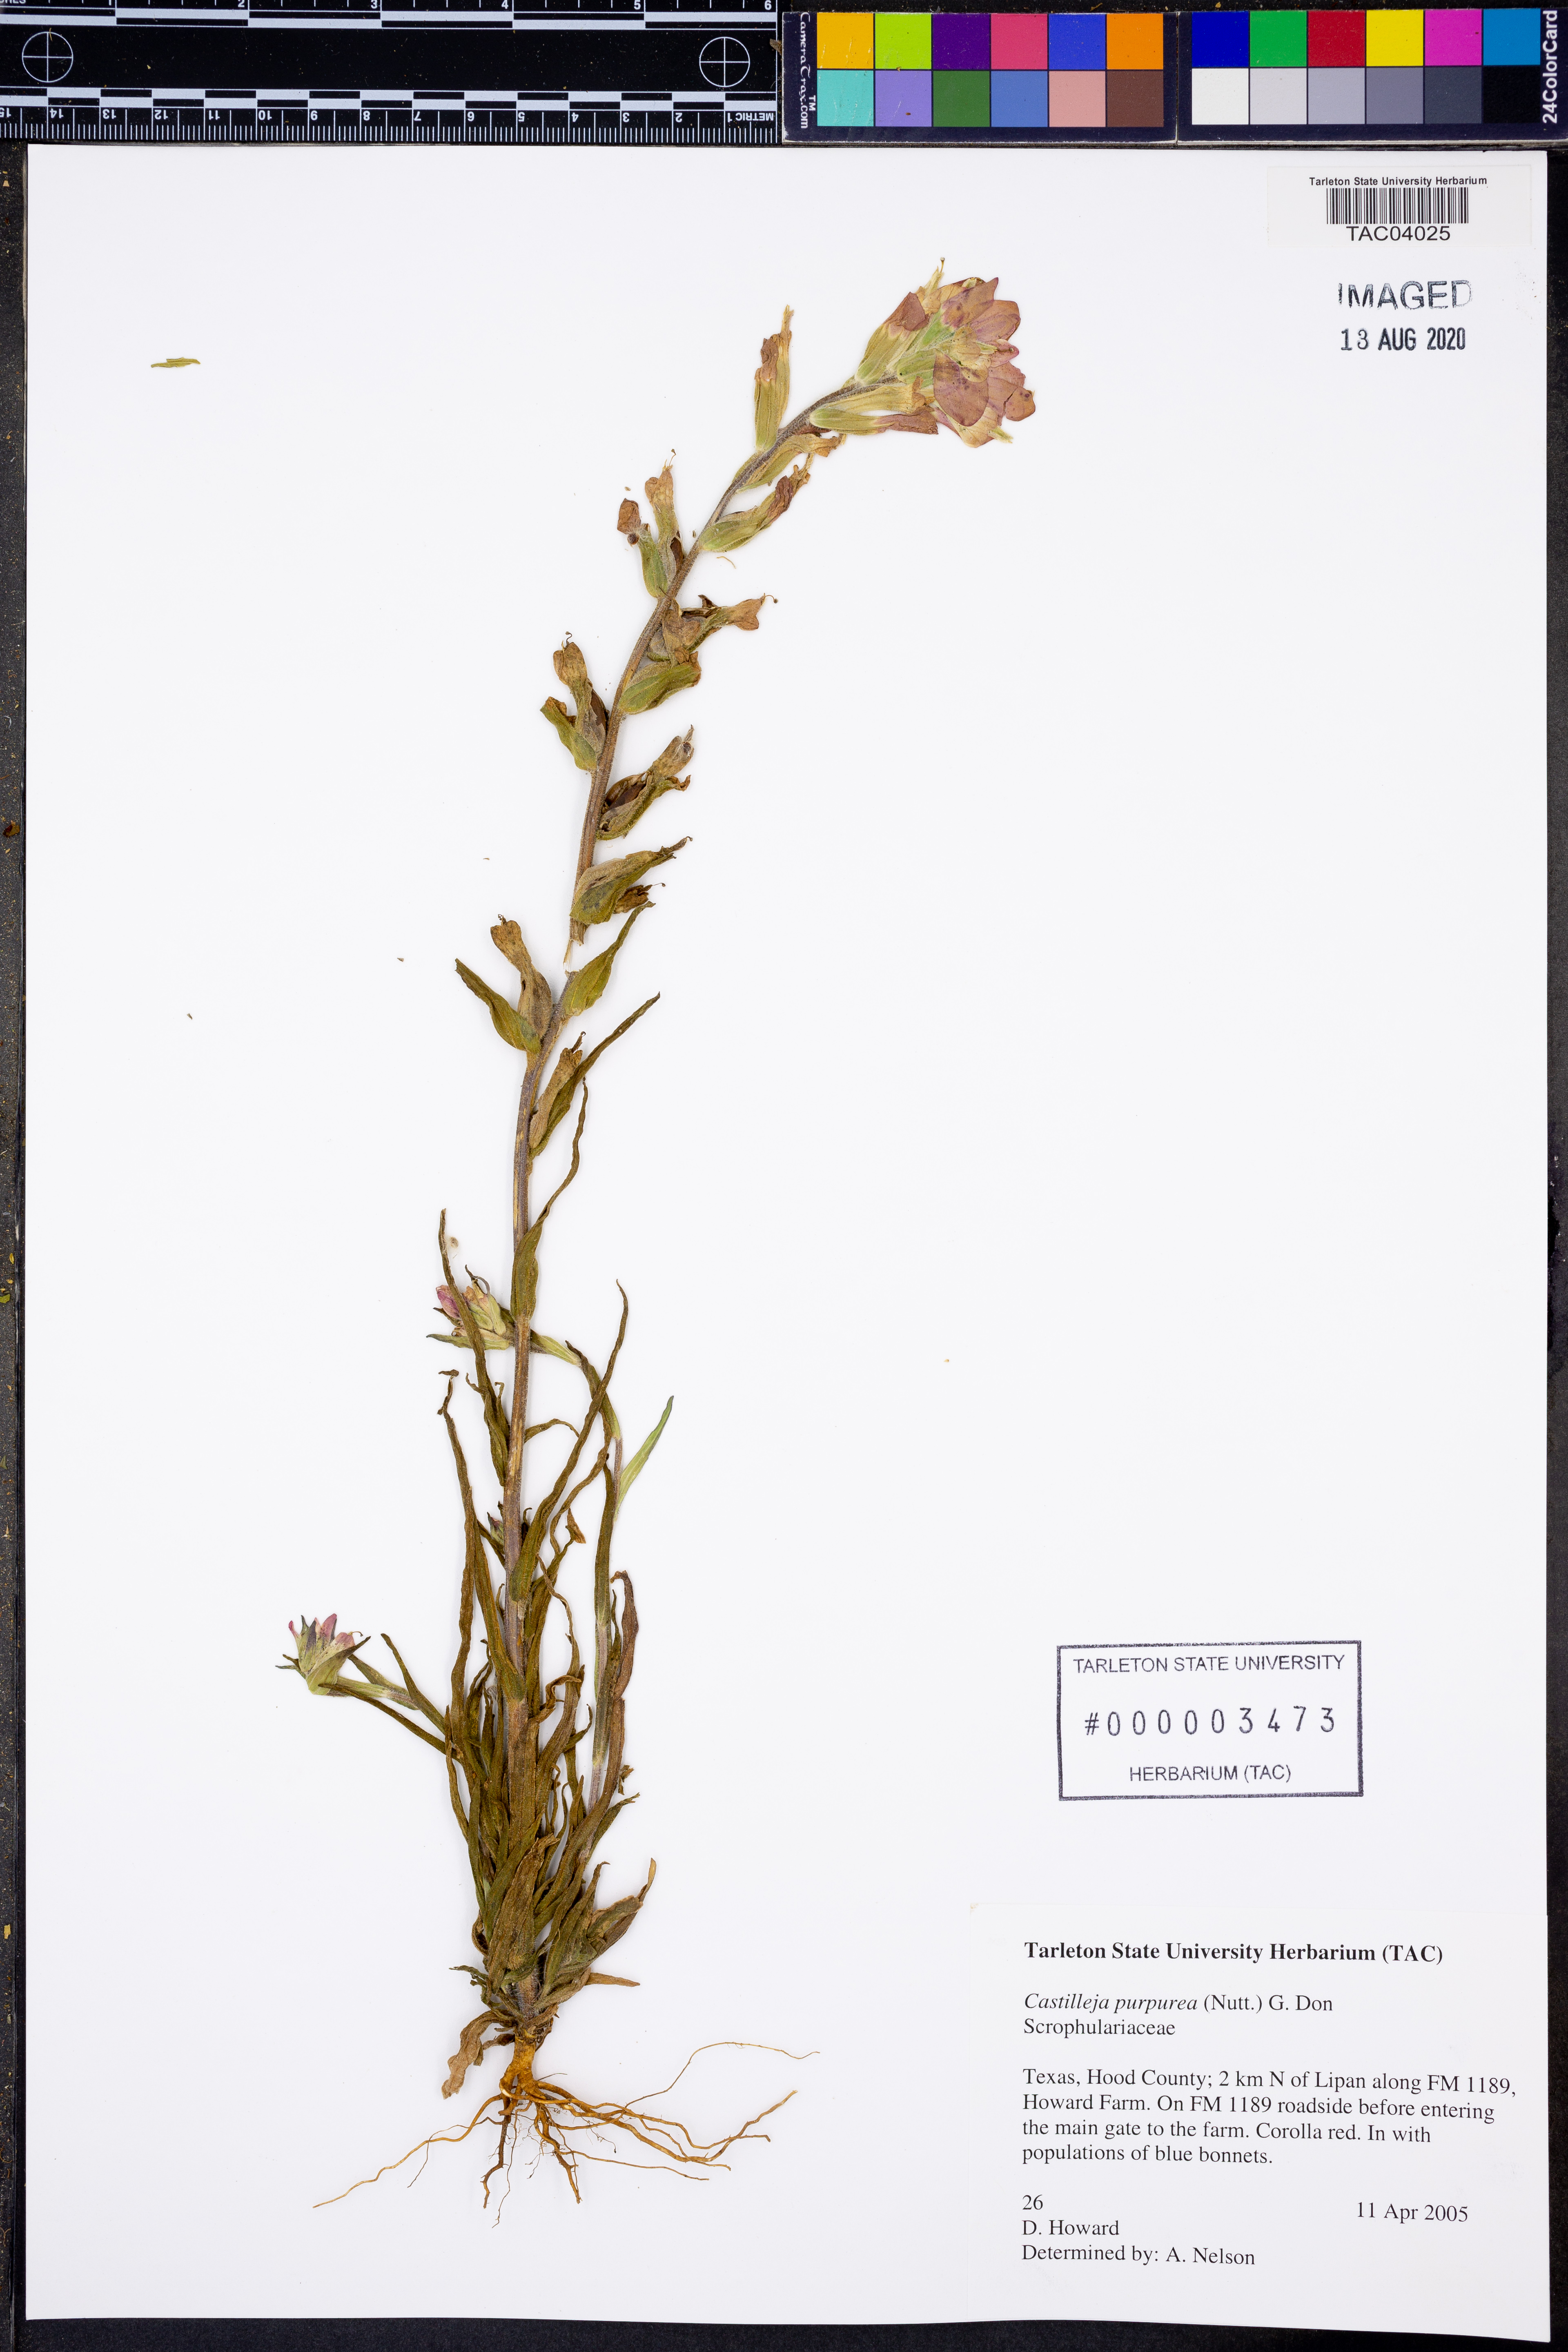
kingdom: Plantae
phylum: Tracheophyta
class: Magnoliopsida
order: Lamiales
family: Orobanchaceae
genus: Castilleja
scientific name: Castilleja purpurea
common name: Plains paintbrush
